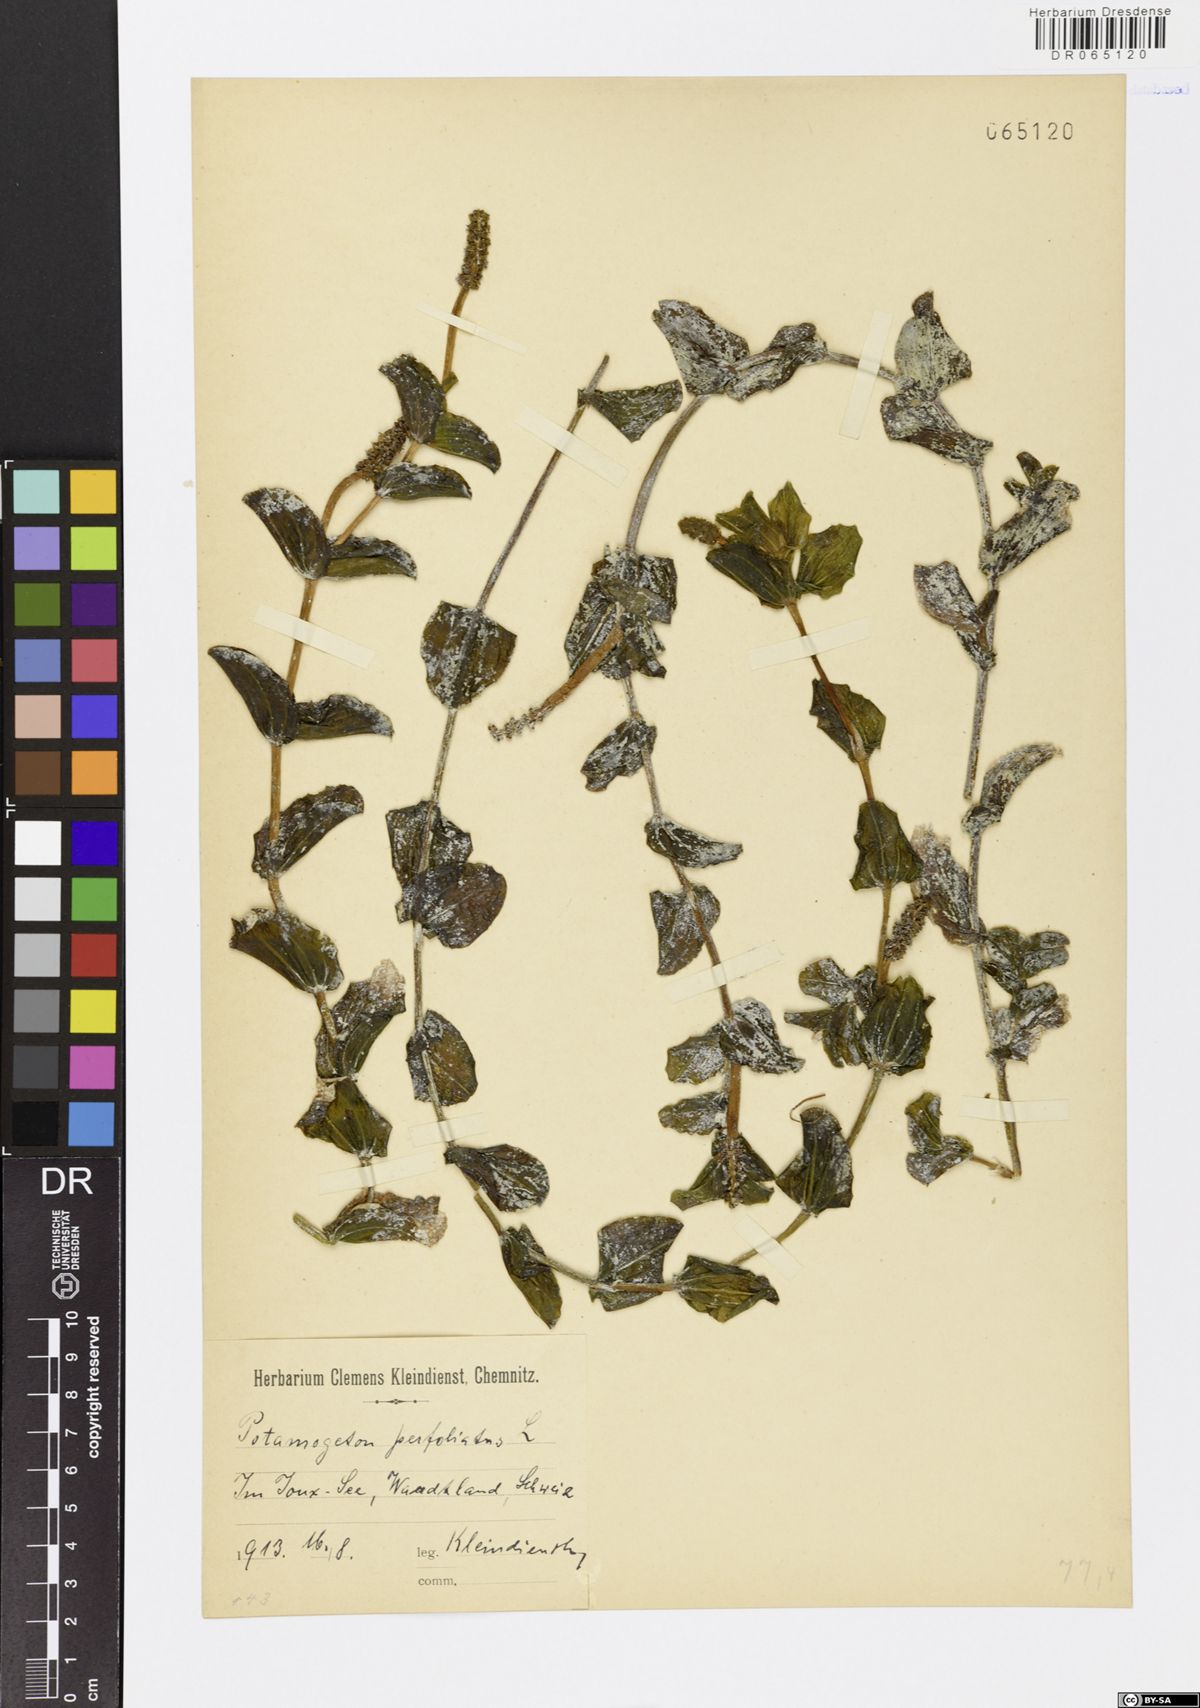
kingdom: Plantae
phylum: Tracheophyta
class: Liliopsida
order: Alismatales
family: Potamogetonaceae
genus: Potamogeton
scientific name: Potamogeton perfoliatus
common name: Perfoliate pondweed
